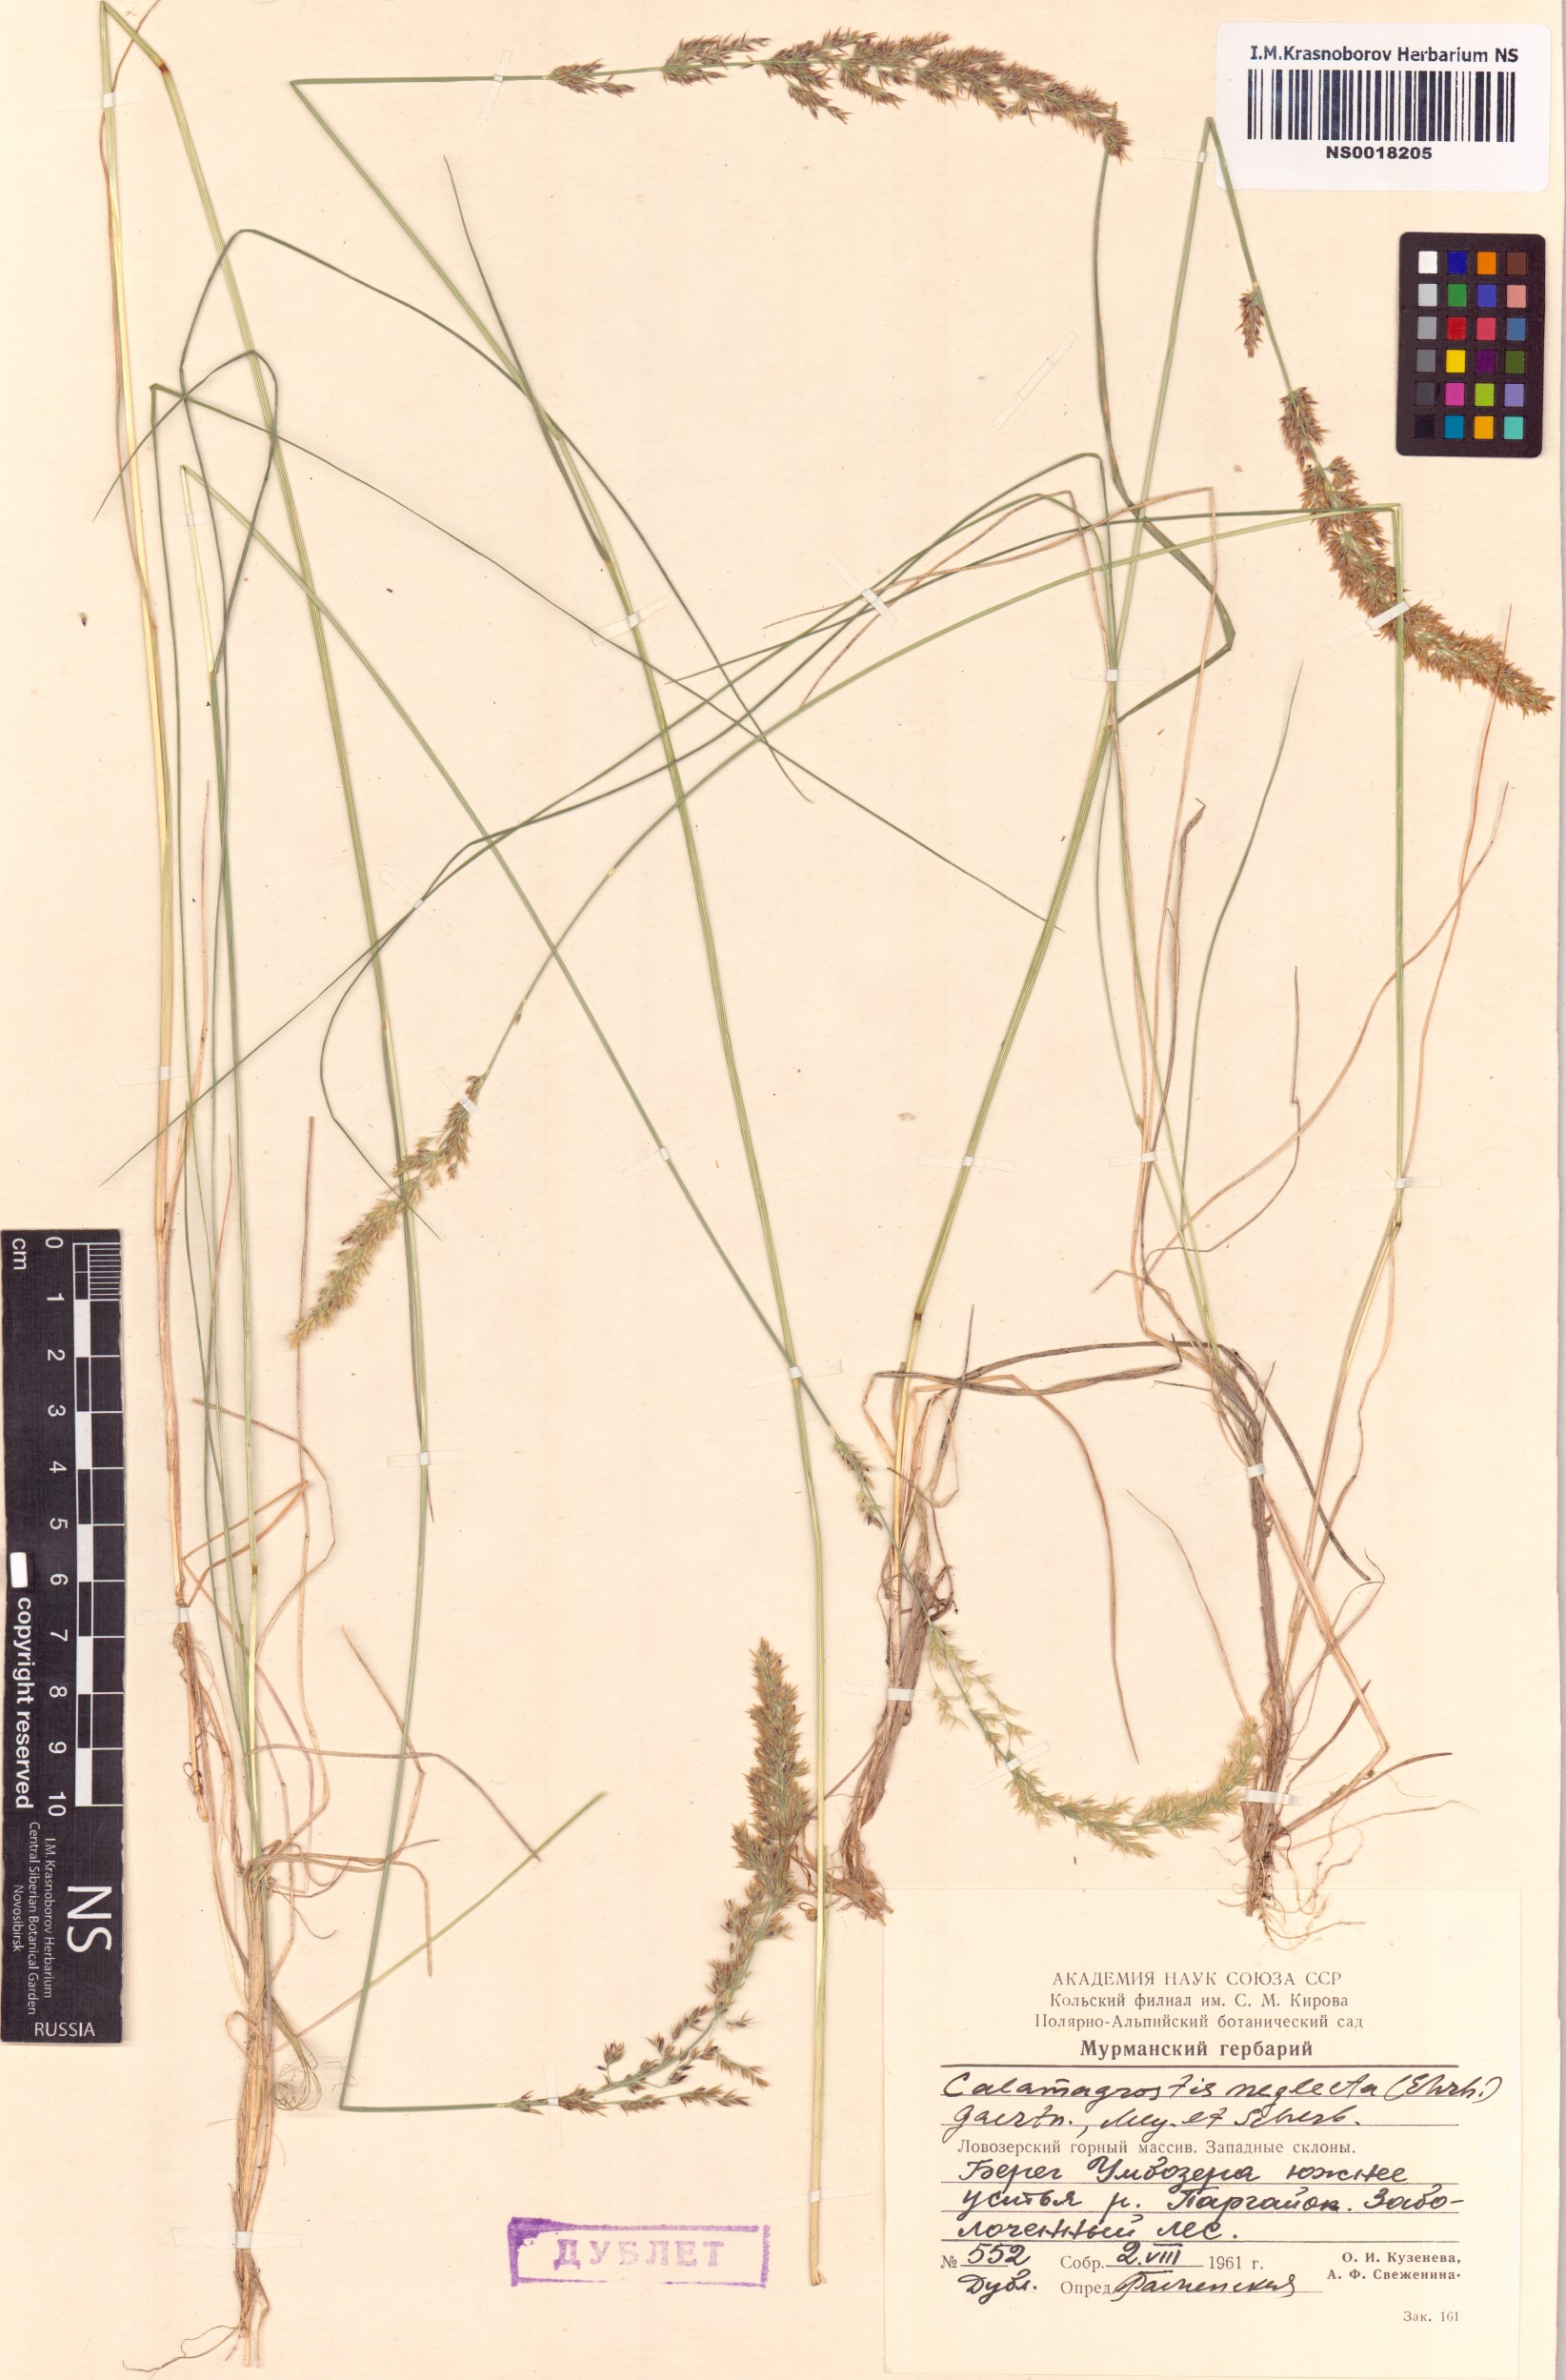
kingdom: Plantae
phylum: Tracheophyta
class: Liliopsida
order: Poales
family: Poaceae
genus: Achnatherum
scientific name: Achnatherum calamagrostis
